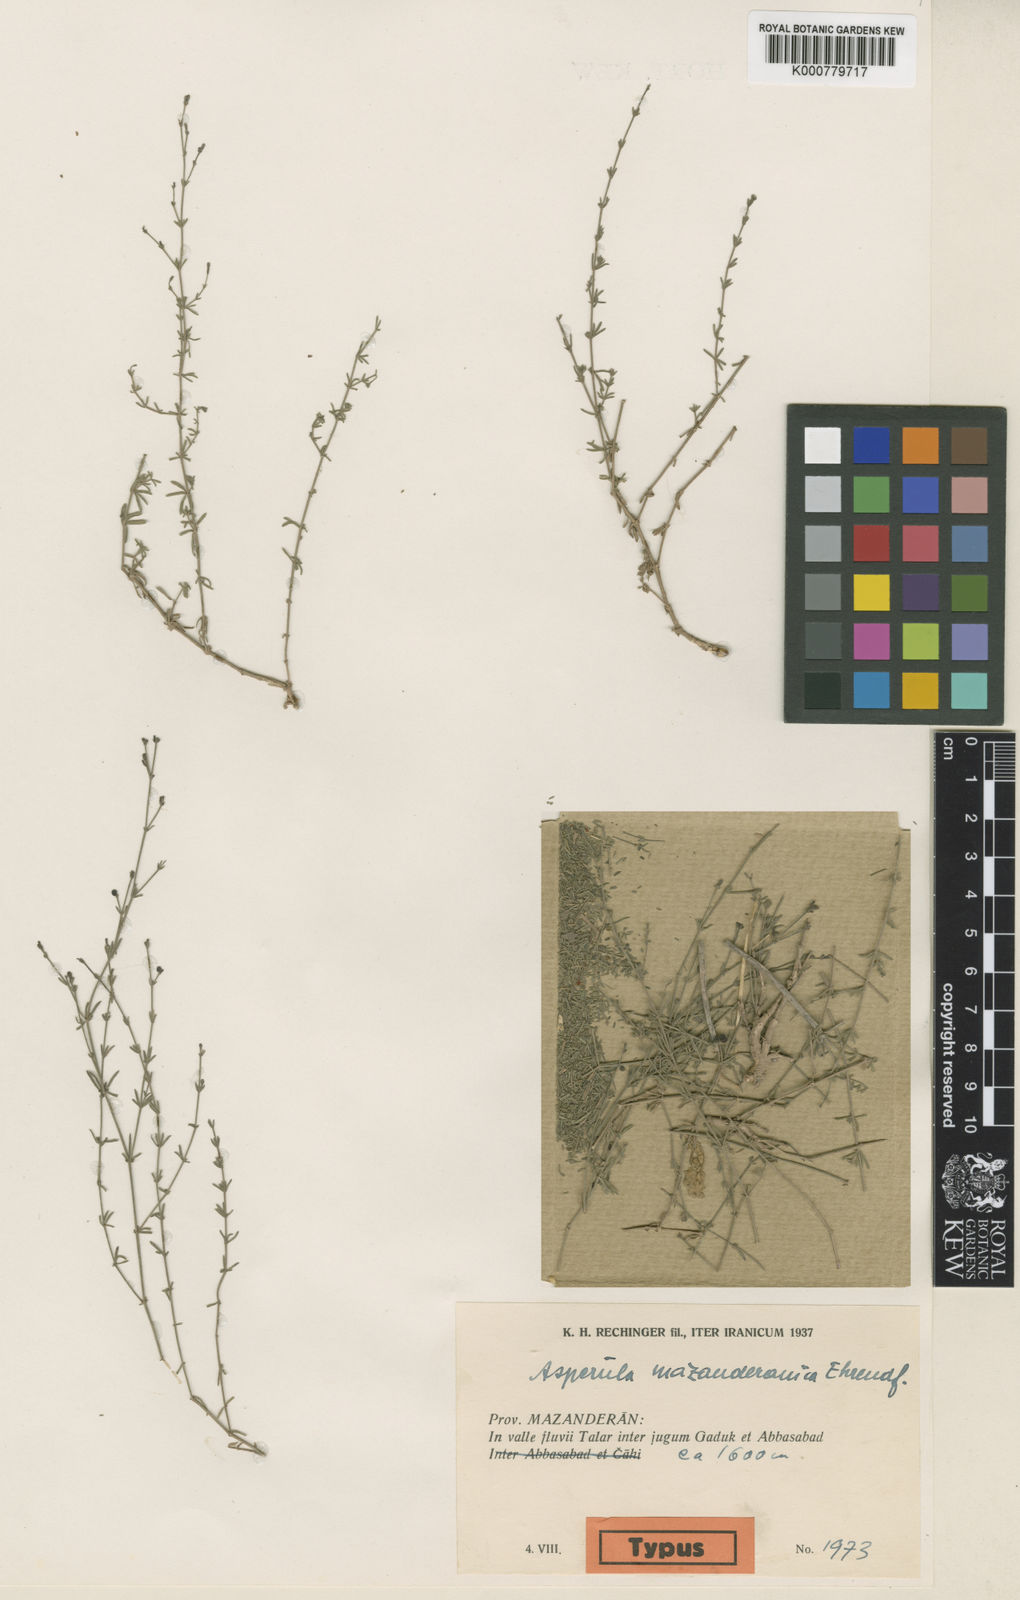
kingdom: Plantae
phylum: Tracheophyta
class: Magnoliopsida
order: Gentianales
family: Rubiaceae
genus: Thliphthisa
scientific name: Thliphthisa mazanderanica
